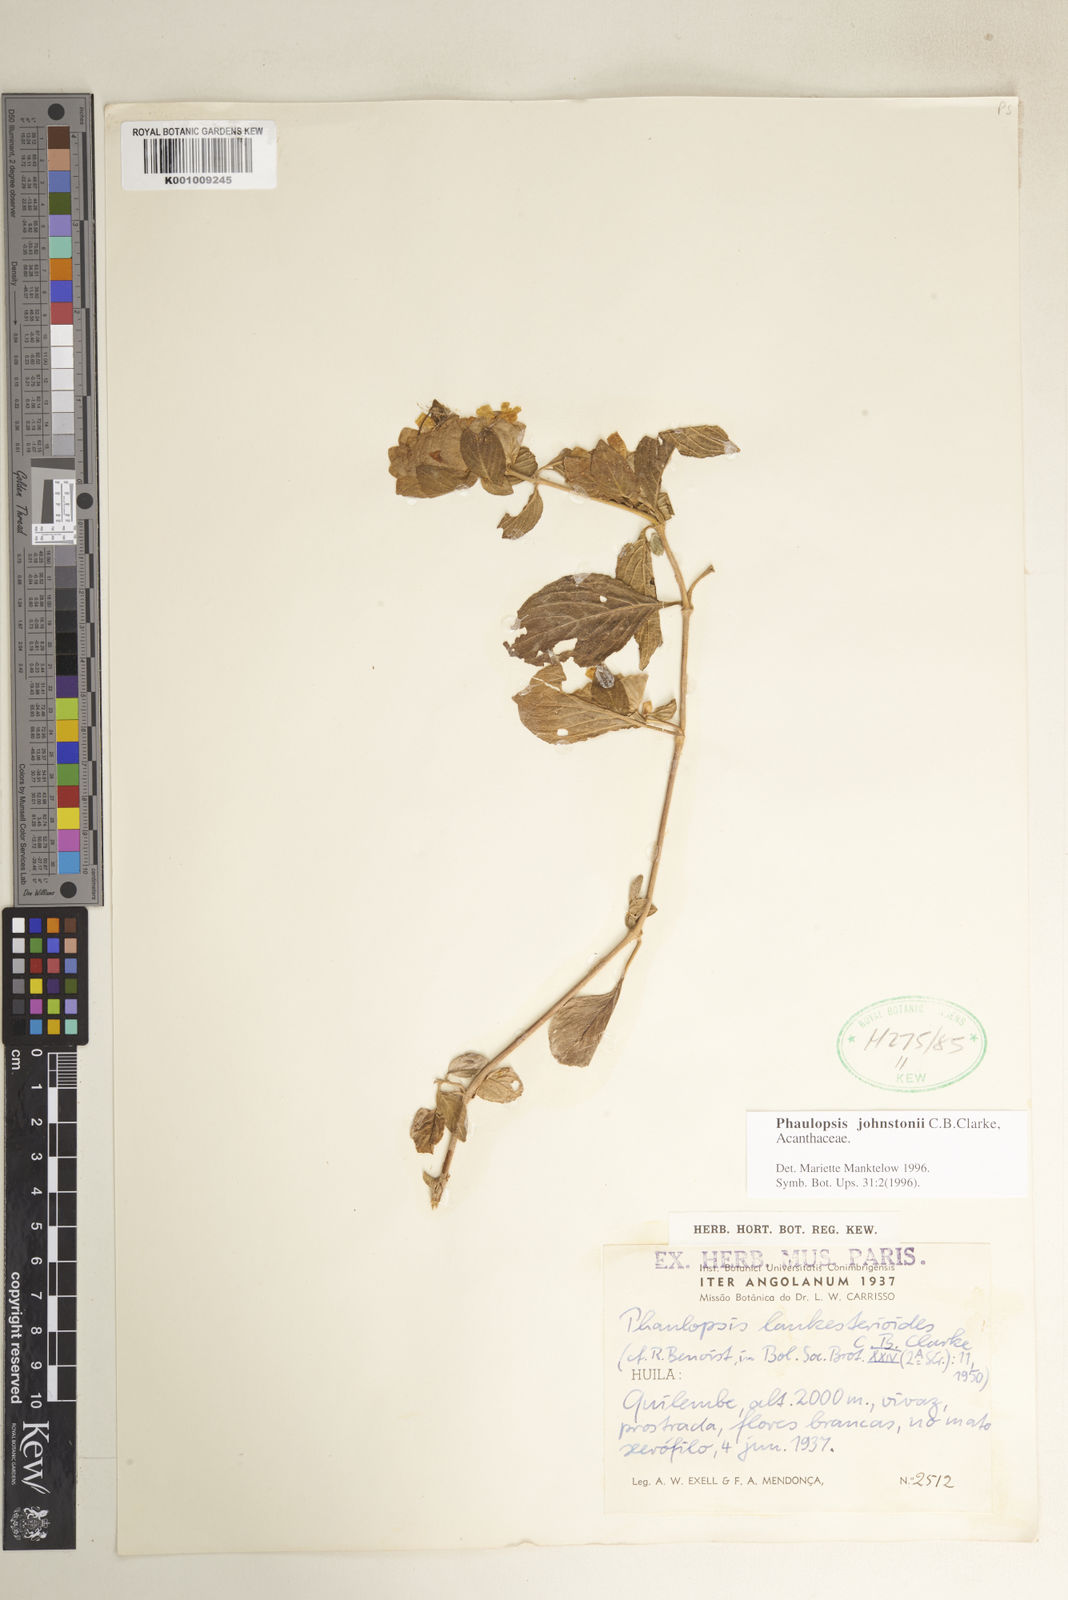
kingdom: Plantae
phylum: Tracheophyta
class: Magnoliopsida
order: Lamiales
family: Acanthaceae
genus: Phaulopsis
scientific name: Phaulopsis johnstonii
